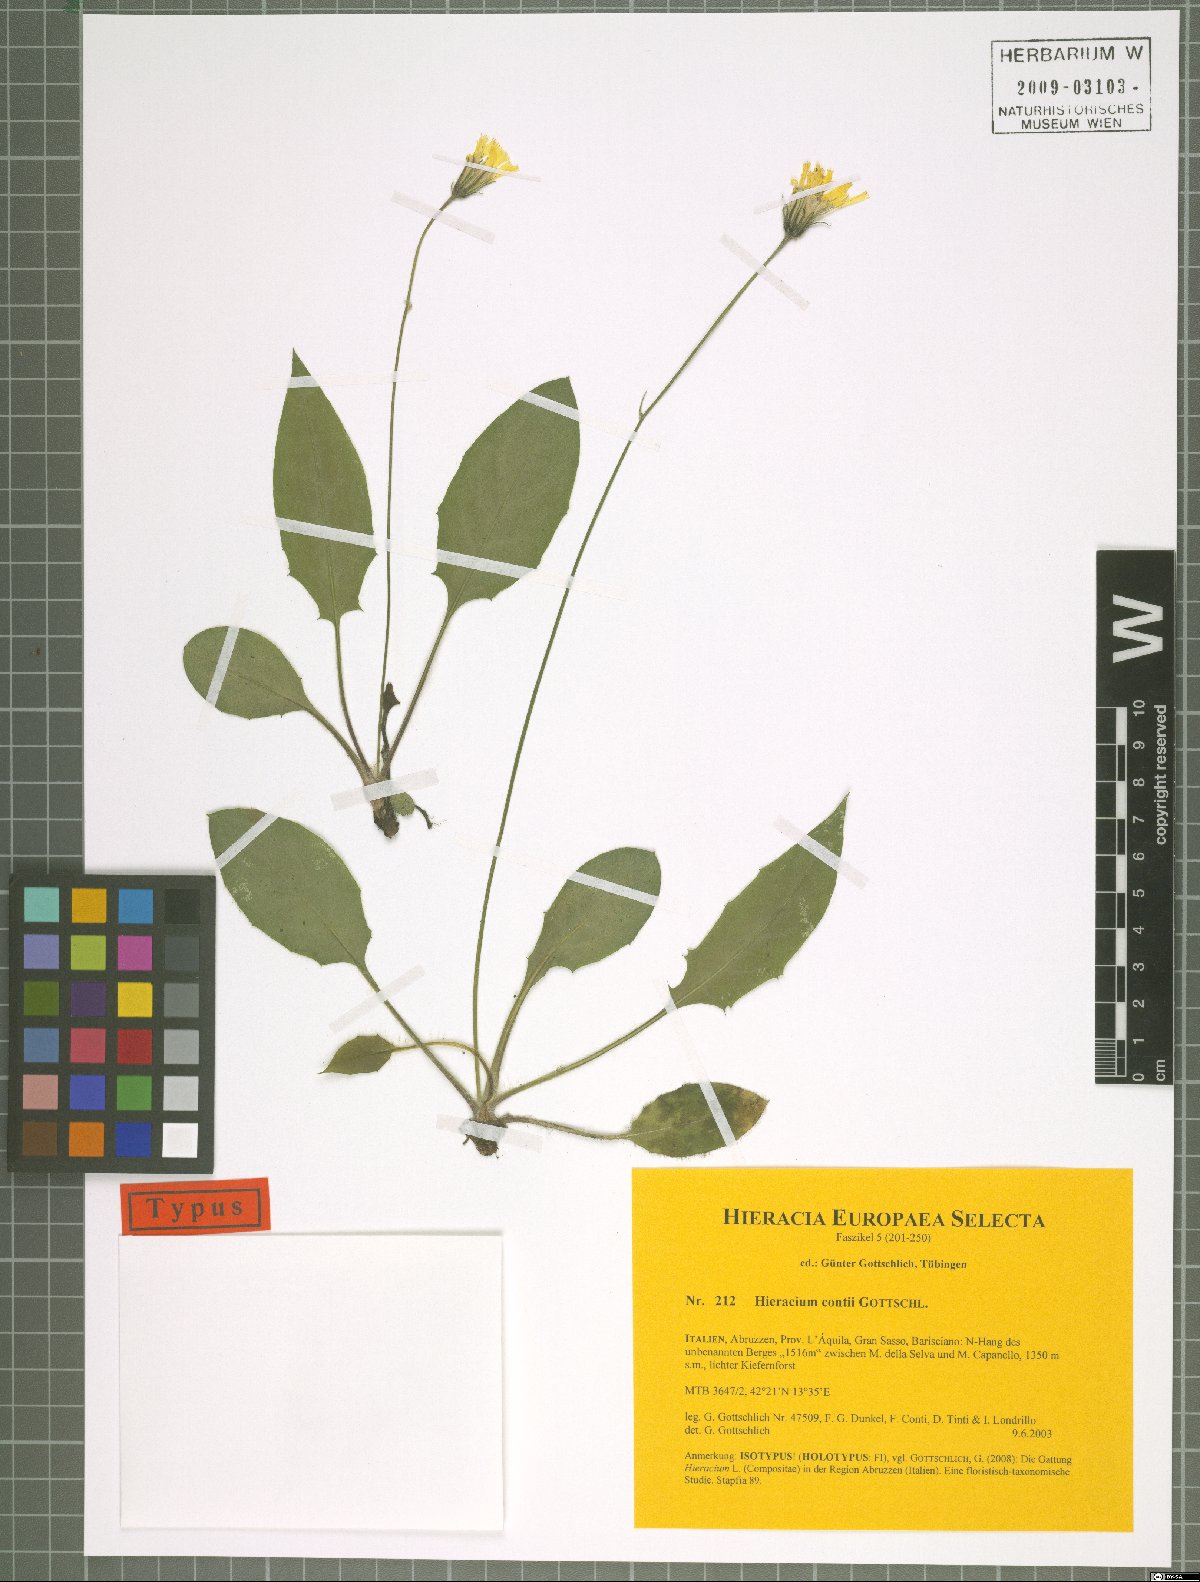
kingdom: Plantae
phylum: Tracheophyta
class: Magnoliopsida
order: Asterales
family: Asteraceae
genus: Hieracium
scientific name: Hieracium contii
